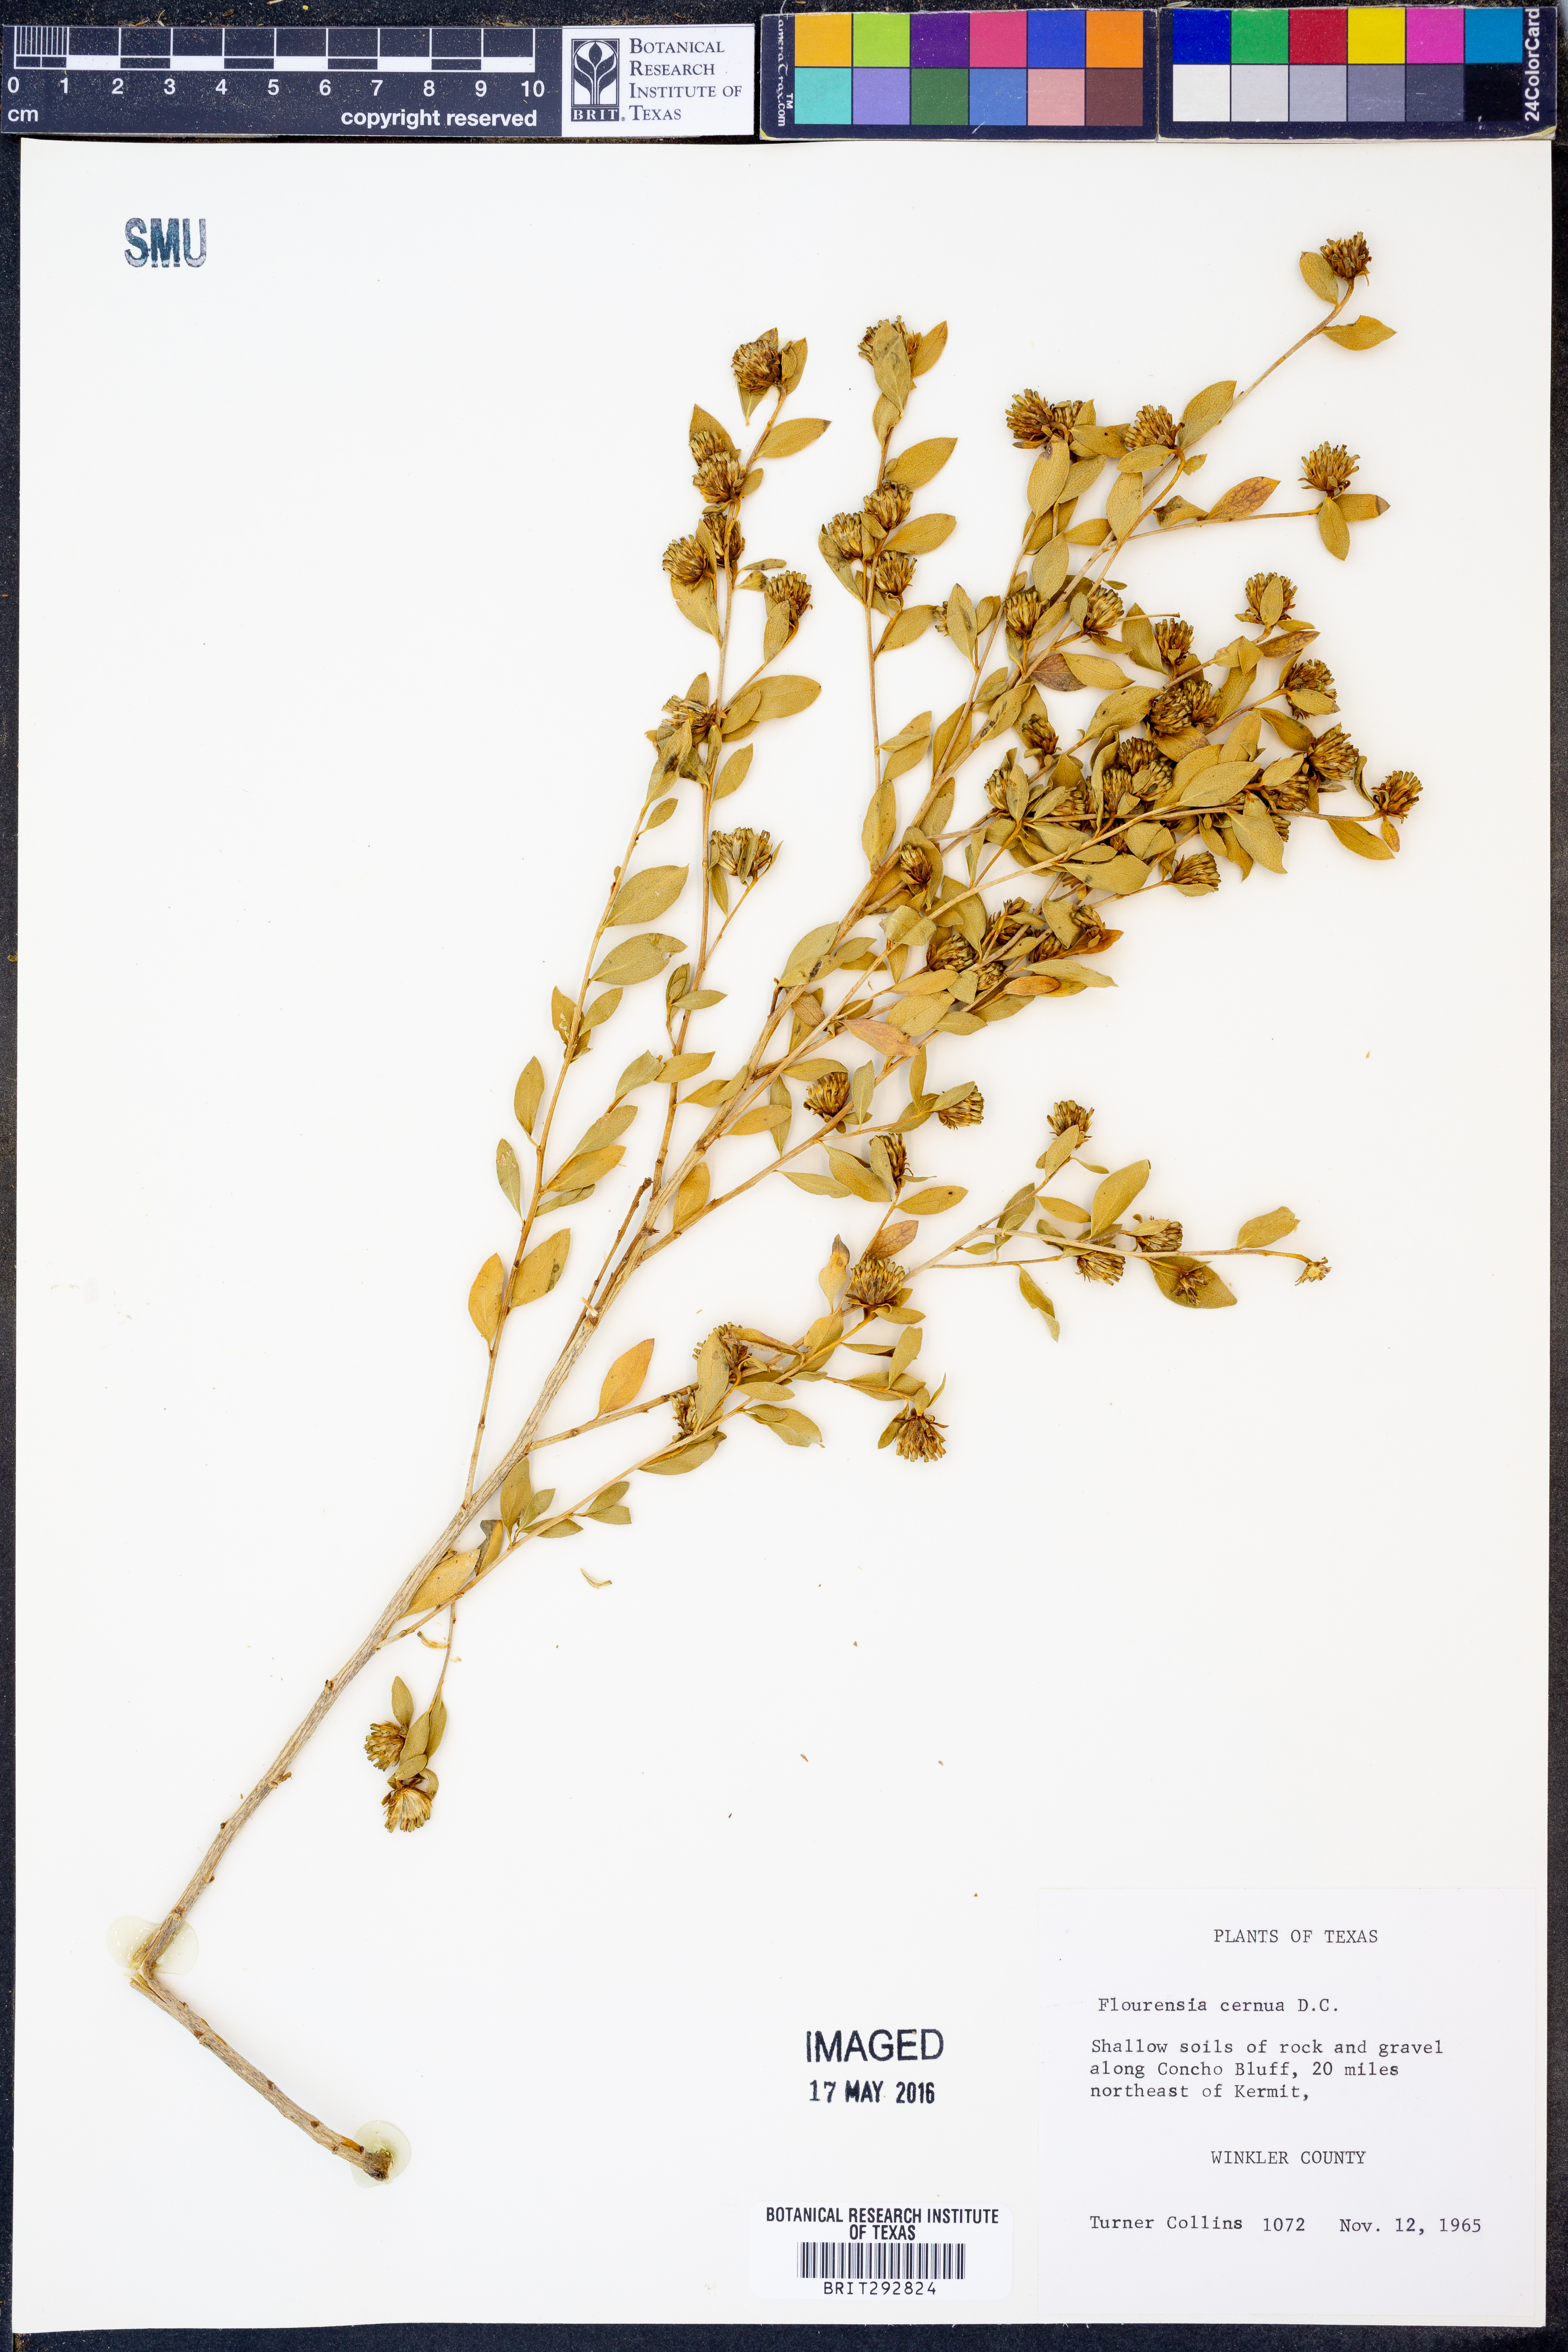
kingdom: Plantae
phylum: Tracheophyta
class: Magnoliopsida
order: Asterales
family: Asteraceae
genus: Flourensia
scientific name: Flourensia cernua
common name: Varnishbush
